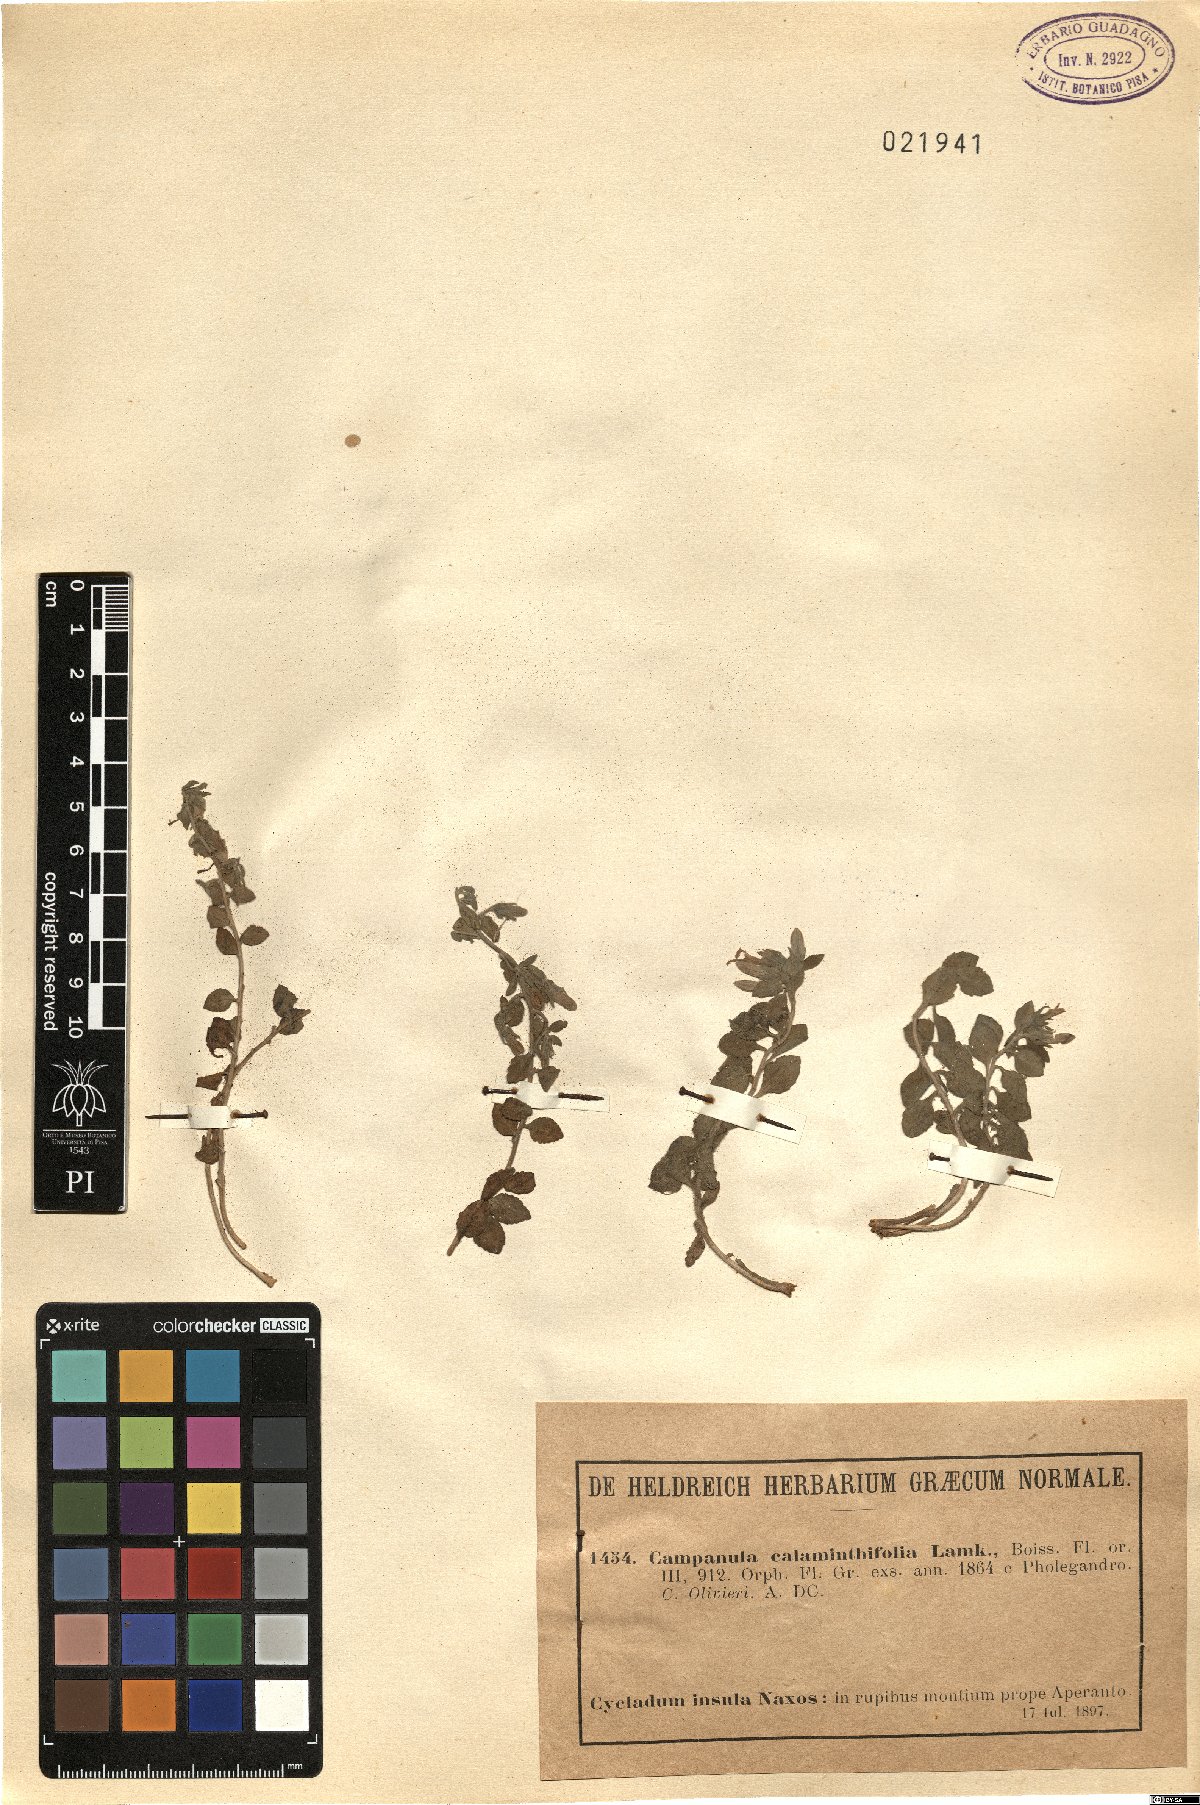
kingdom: Plantae
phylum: Tracheophyta
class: Magnoliopsida
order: Asterales
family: Campanulaceae
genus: Campanula
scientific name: Campanula calaminthifolia
